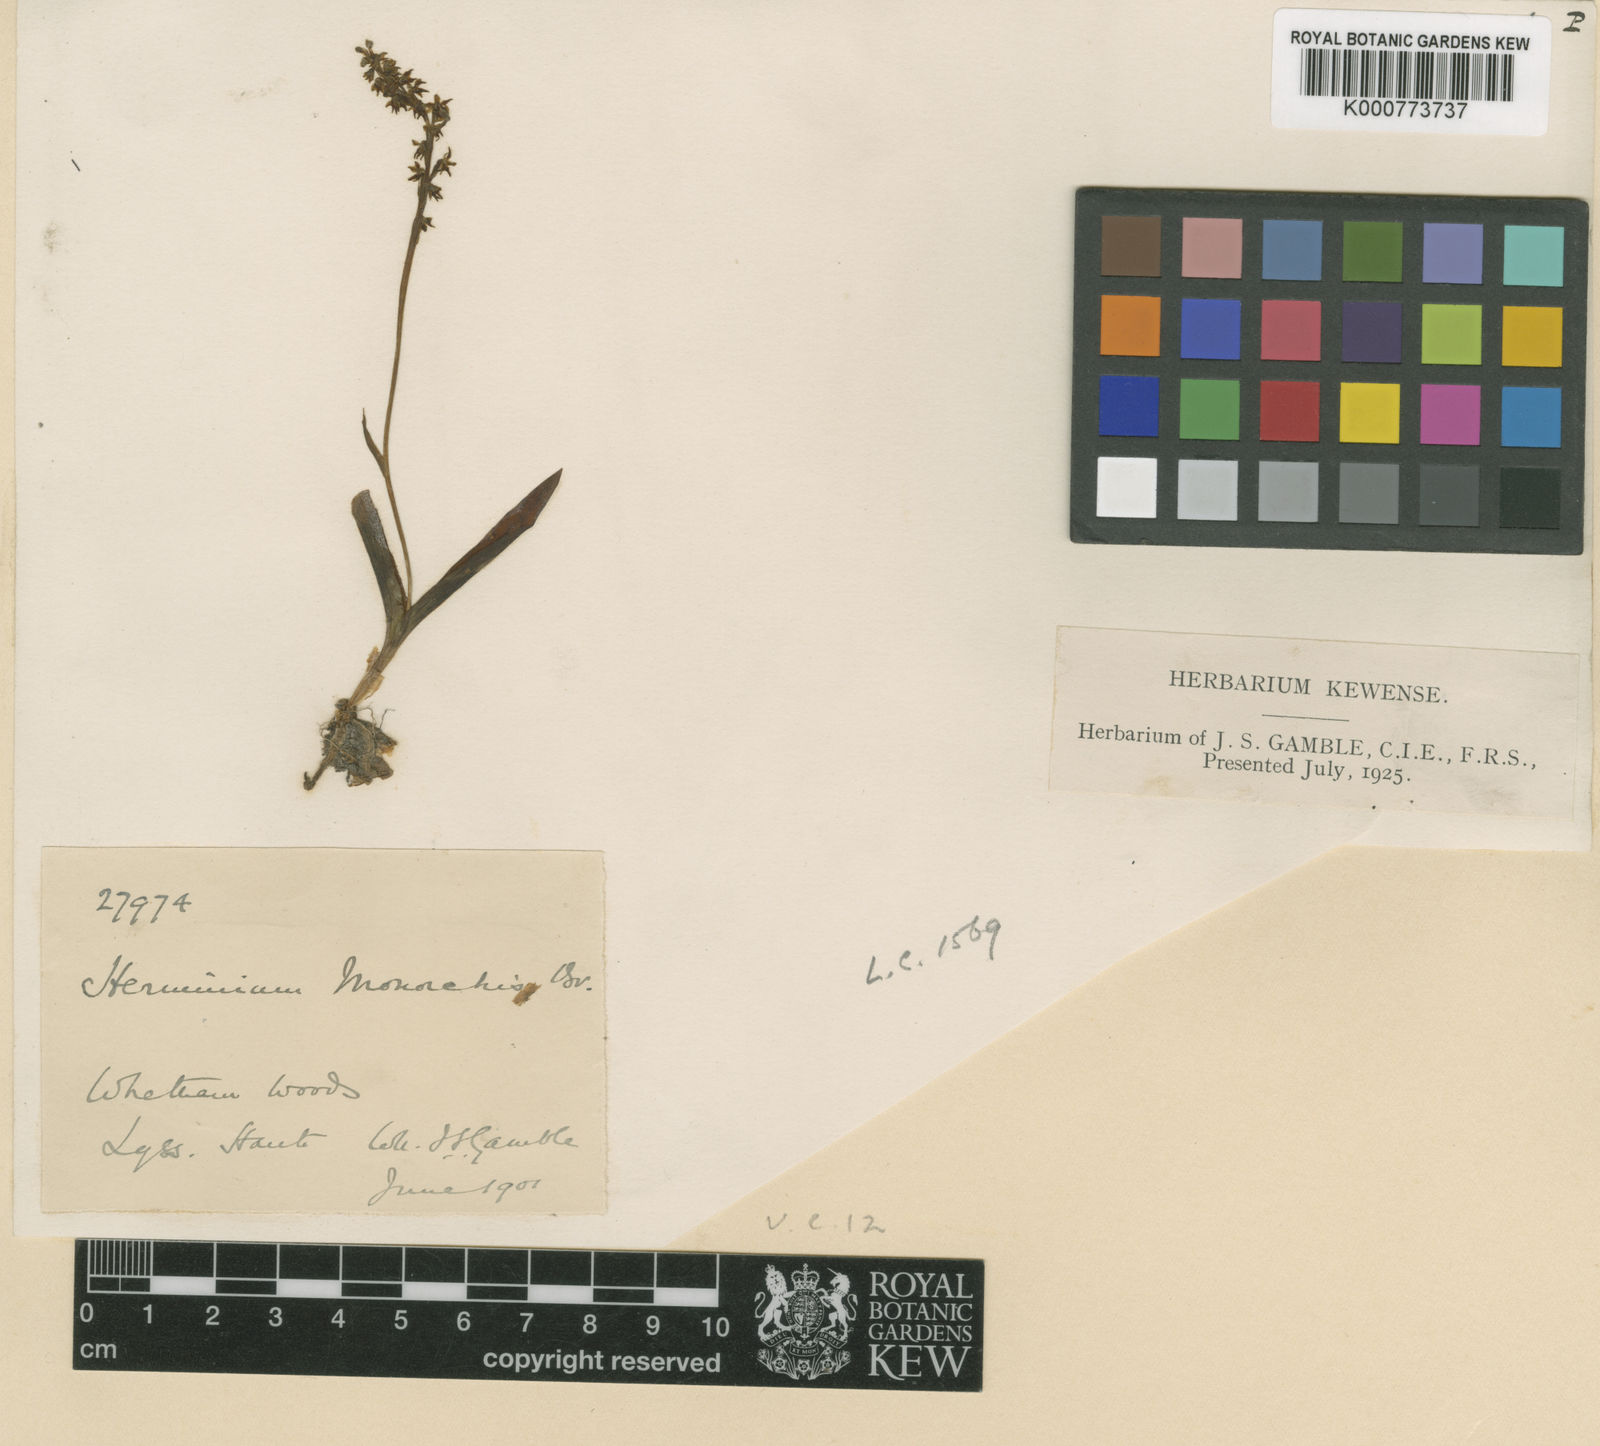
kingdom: Plantae
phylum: Tracheophyta
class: Liliopsida
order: Asparagales
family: Orchidaceae
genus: Herminium
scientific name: Herminium monorchis
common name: Musk orchid
